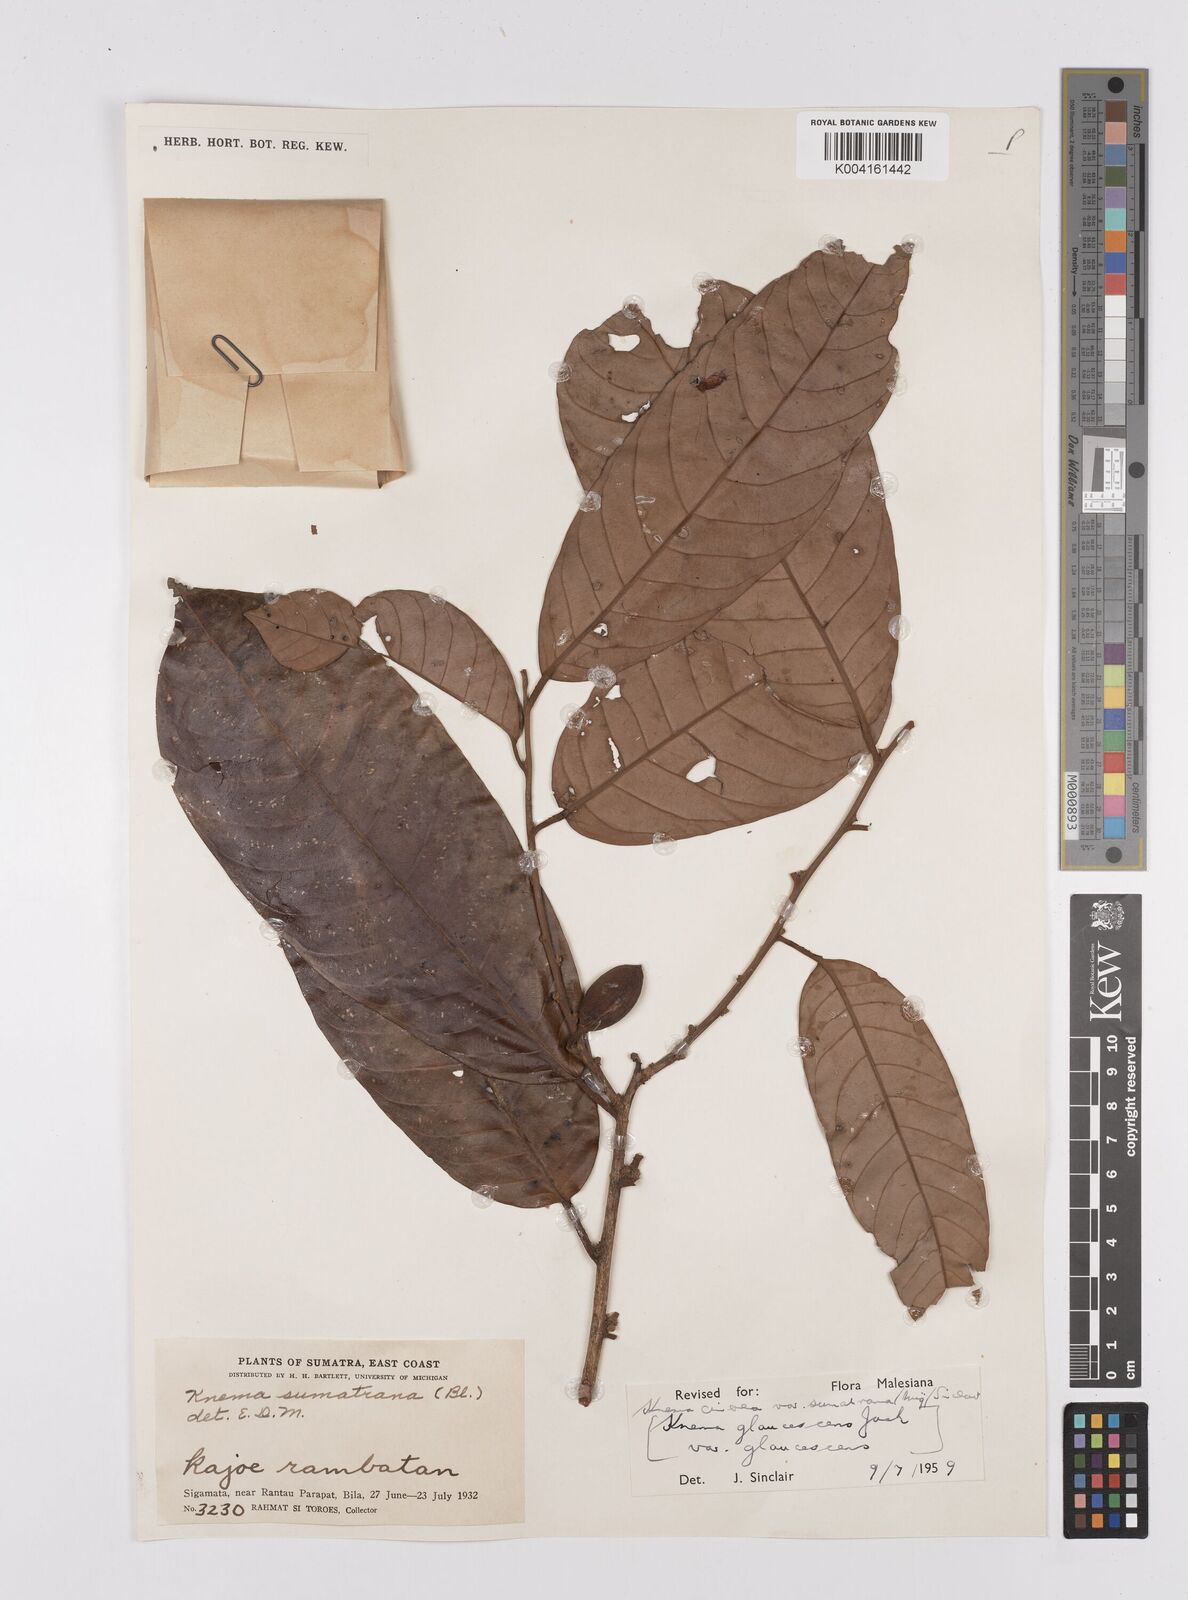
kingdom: Plantae
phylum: Tracheophyta
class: Magnoliopsida
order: Magnoliales
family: Myristicaceae
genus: Knema
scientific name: Knema
